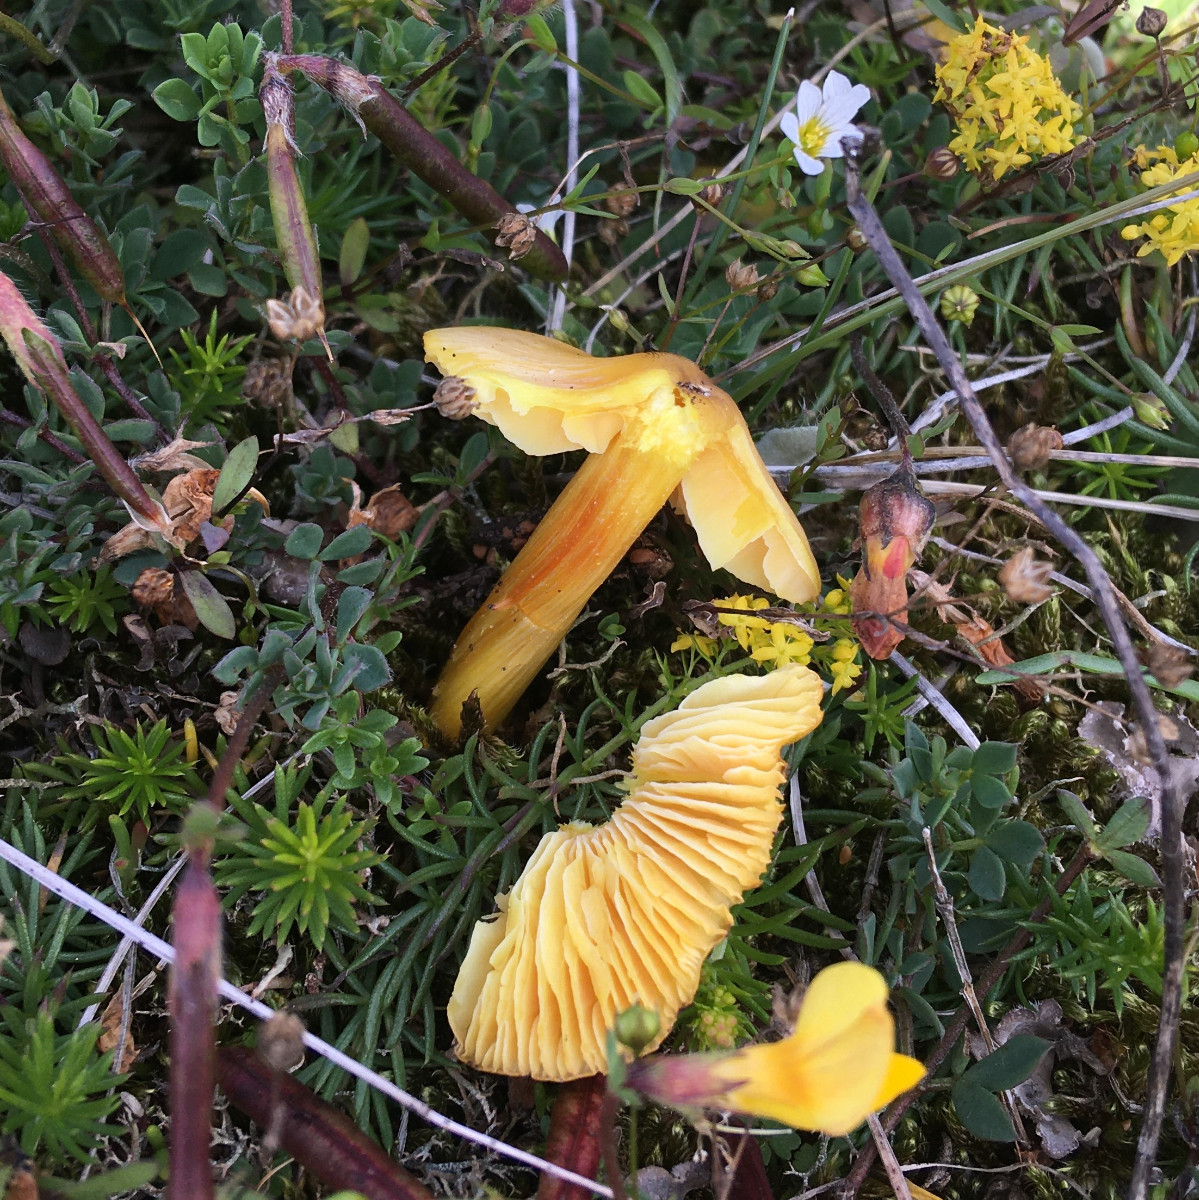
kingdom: Fungi
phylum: Basidiomycota
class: Agaricomycetes
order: Agaricales
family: Hygrophoraceae
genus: Hygrocybe
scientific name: Hygrocybe
